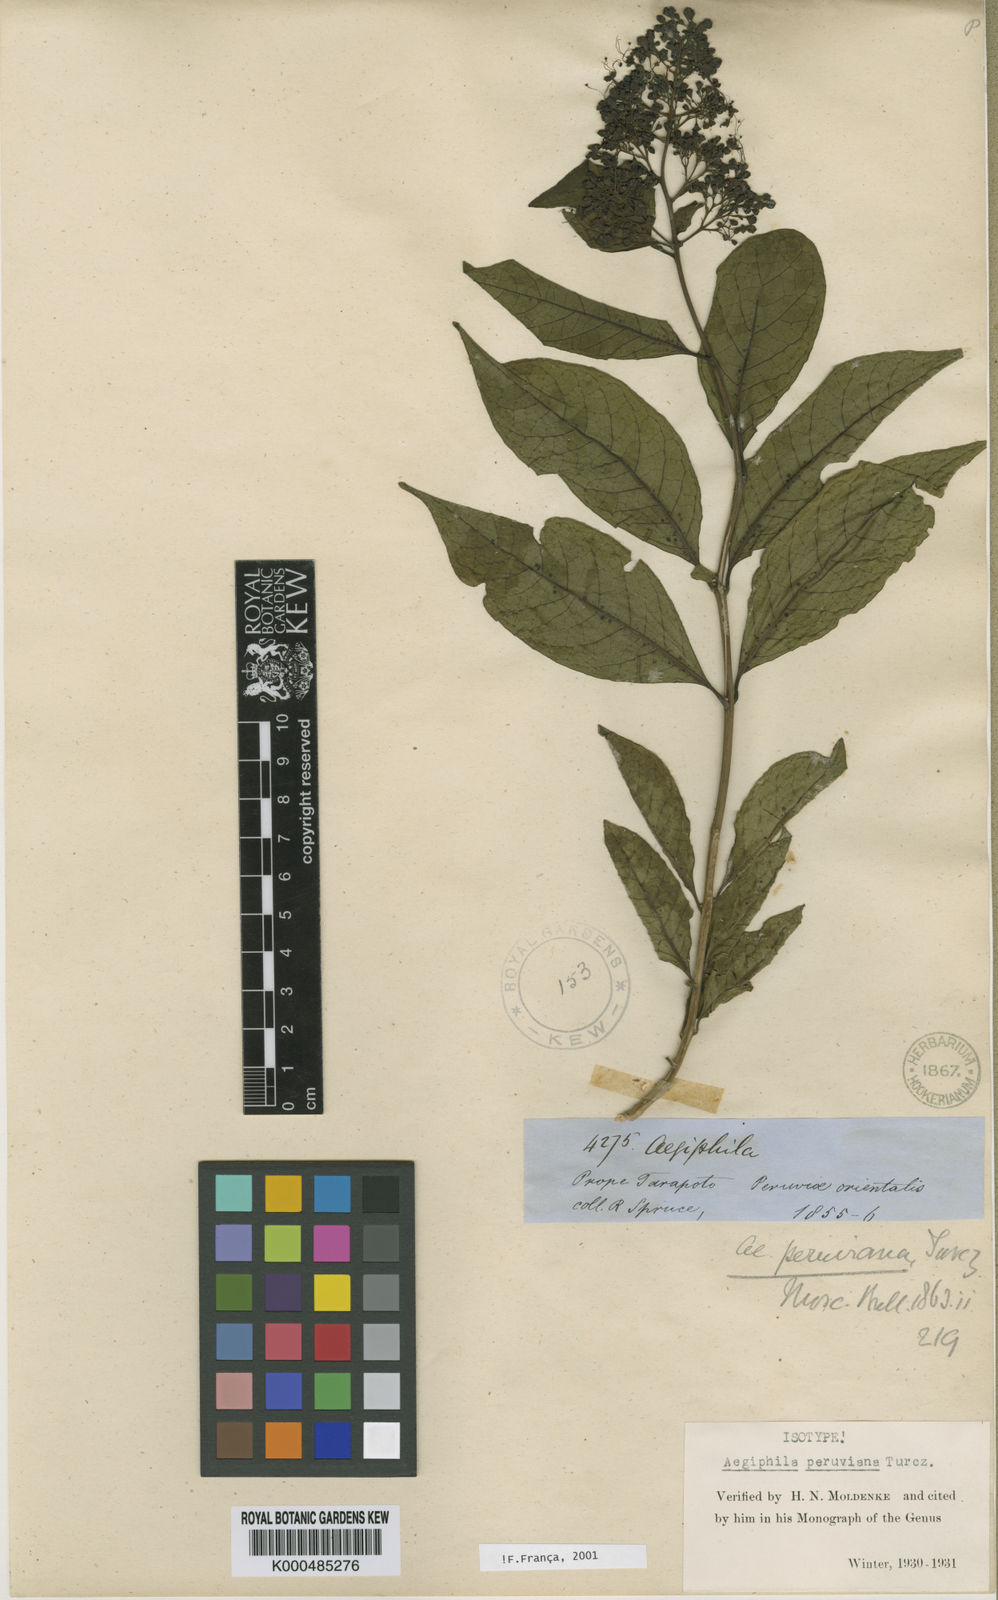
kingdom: Plantae
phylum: Tracheophyta
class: Magnoliopsida
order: Lamiales
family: Lamiaceae
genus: Aegiphila
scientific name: Aegiphila peruviana
